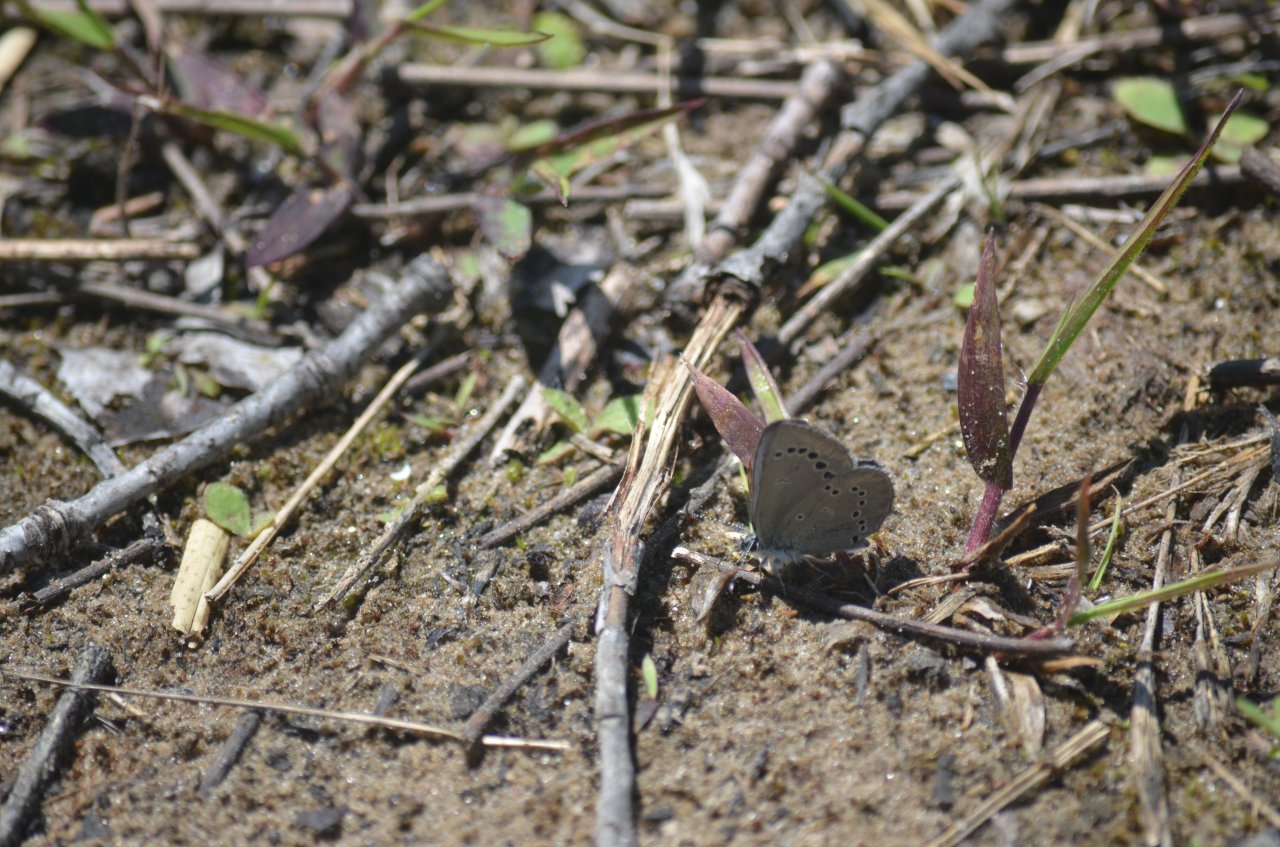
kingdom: Animalia
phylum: Arthropoda
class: Insecta
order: Lepidoptera
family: Lycaenidae
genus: Glaucopsyche
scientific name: Glaucopsyche lygdamus
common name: Silvery Blue
